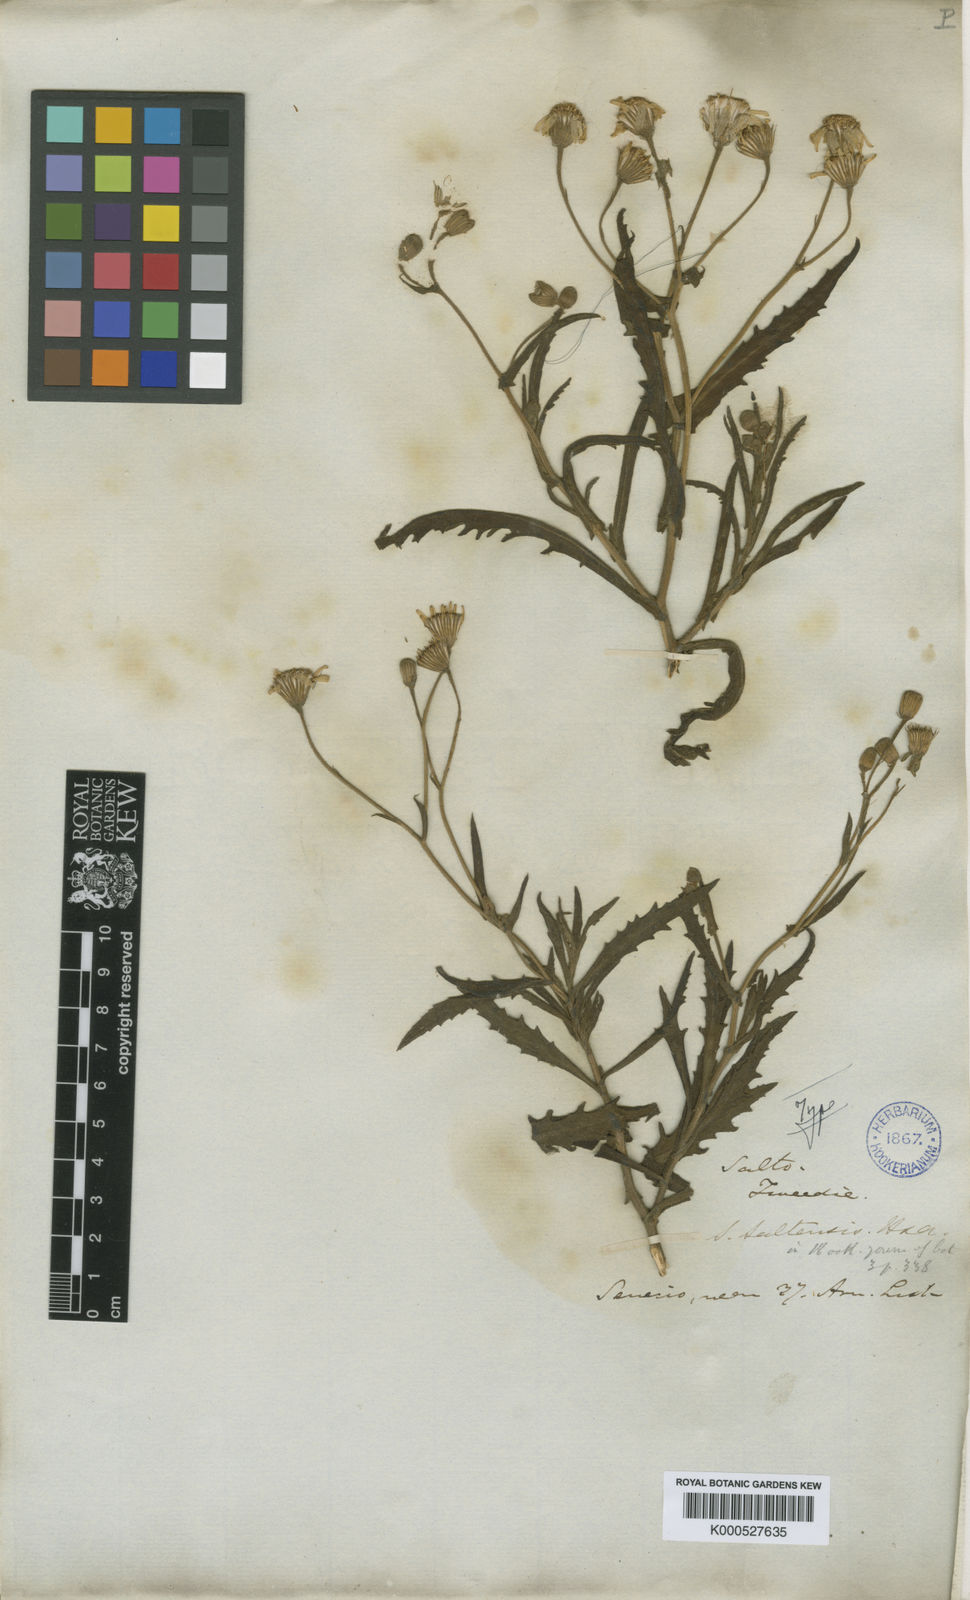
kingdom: Plantae
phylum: Tracheophyta
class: Magnoliopsida
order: Asterales
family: Asteraceae
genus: Senecio
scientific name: Senecio saltensis
